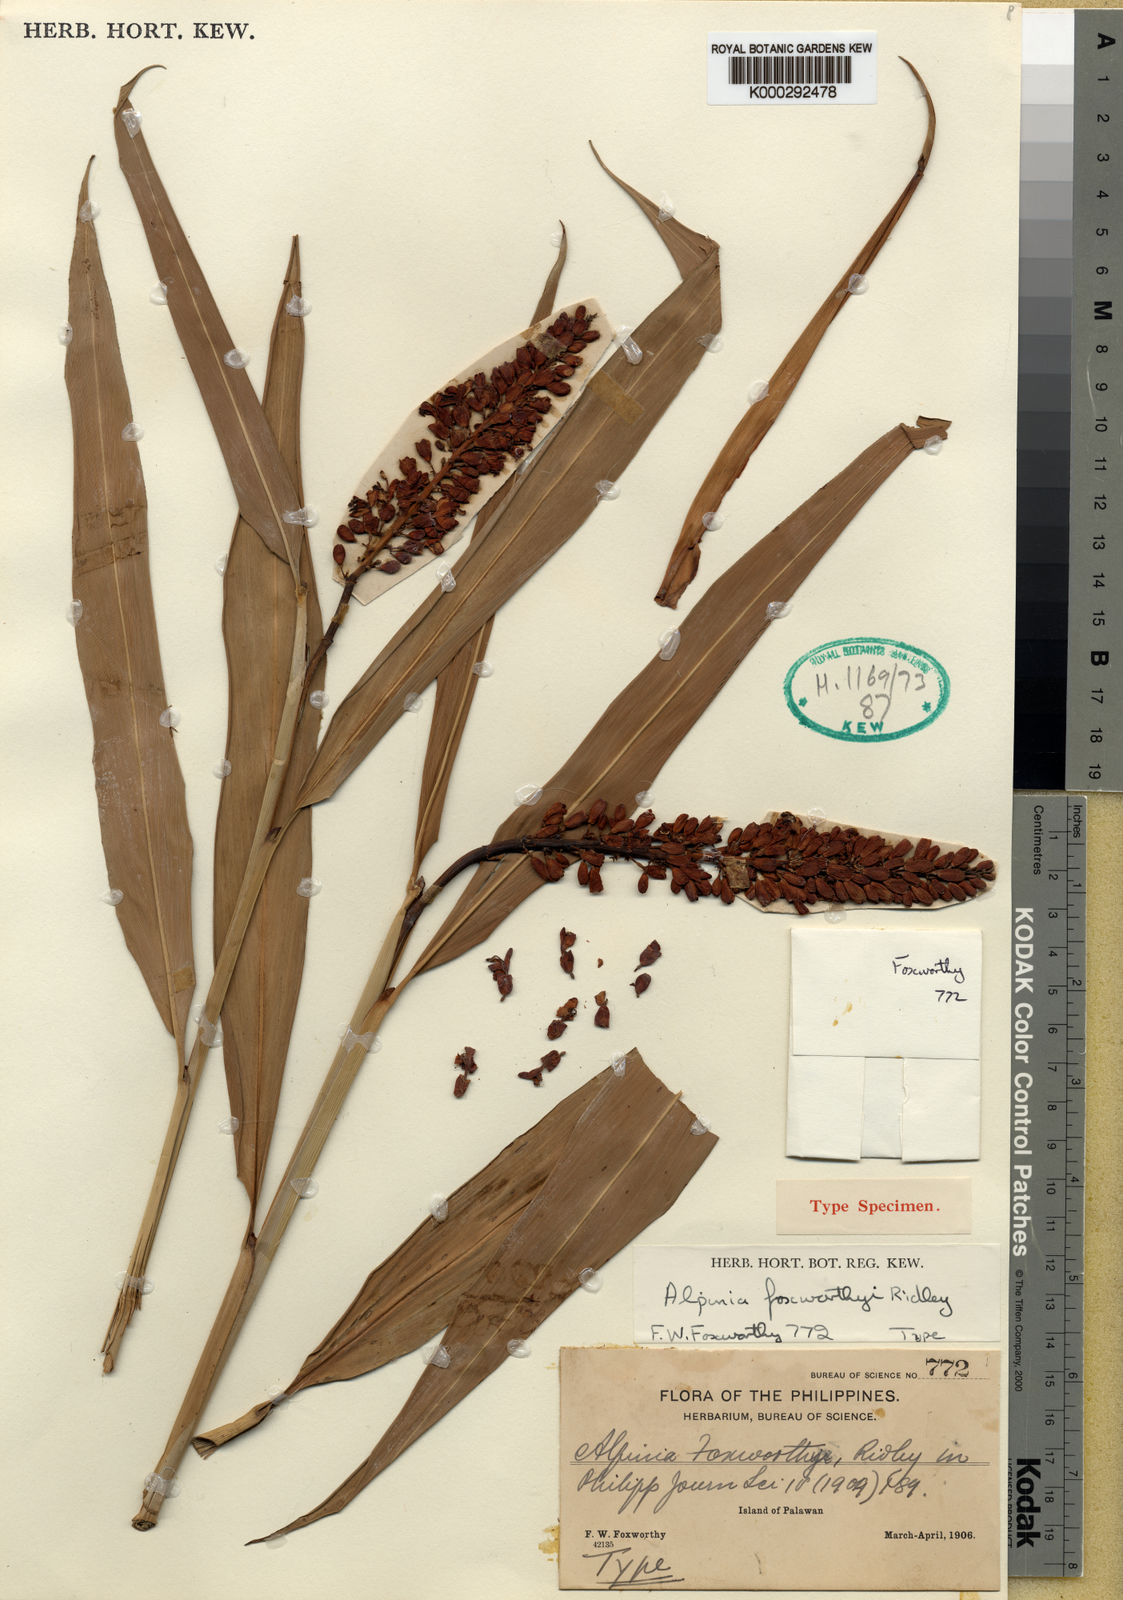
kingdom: Plantae
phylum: Tracheophyta
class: Liliopsida
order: Zingiberales
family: Zingiberaceae
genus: Alpinia
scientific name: Alpinia foxworthyi
